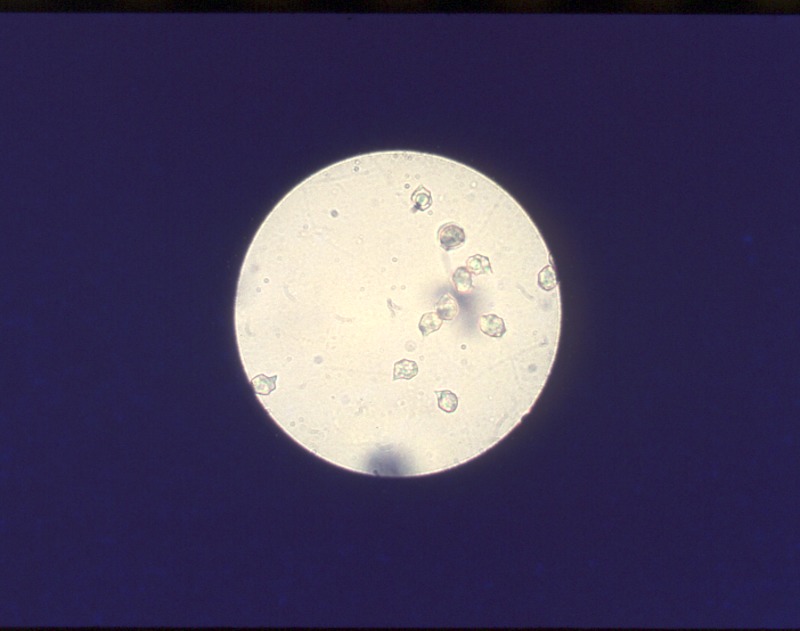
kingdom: Fungi
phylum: Basidiomycota
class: Agaricomycetes
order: Agaricales
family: Entolomataceae
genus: Entoloma
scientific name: Entoloma sericeum
